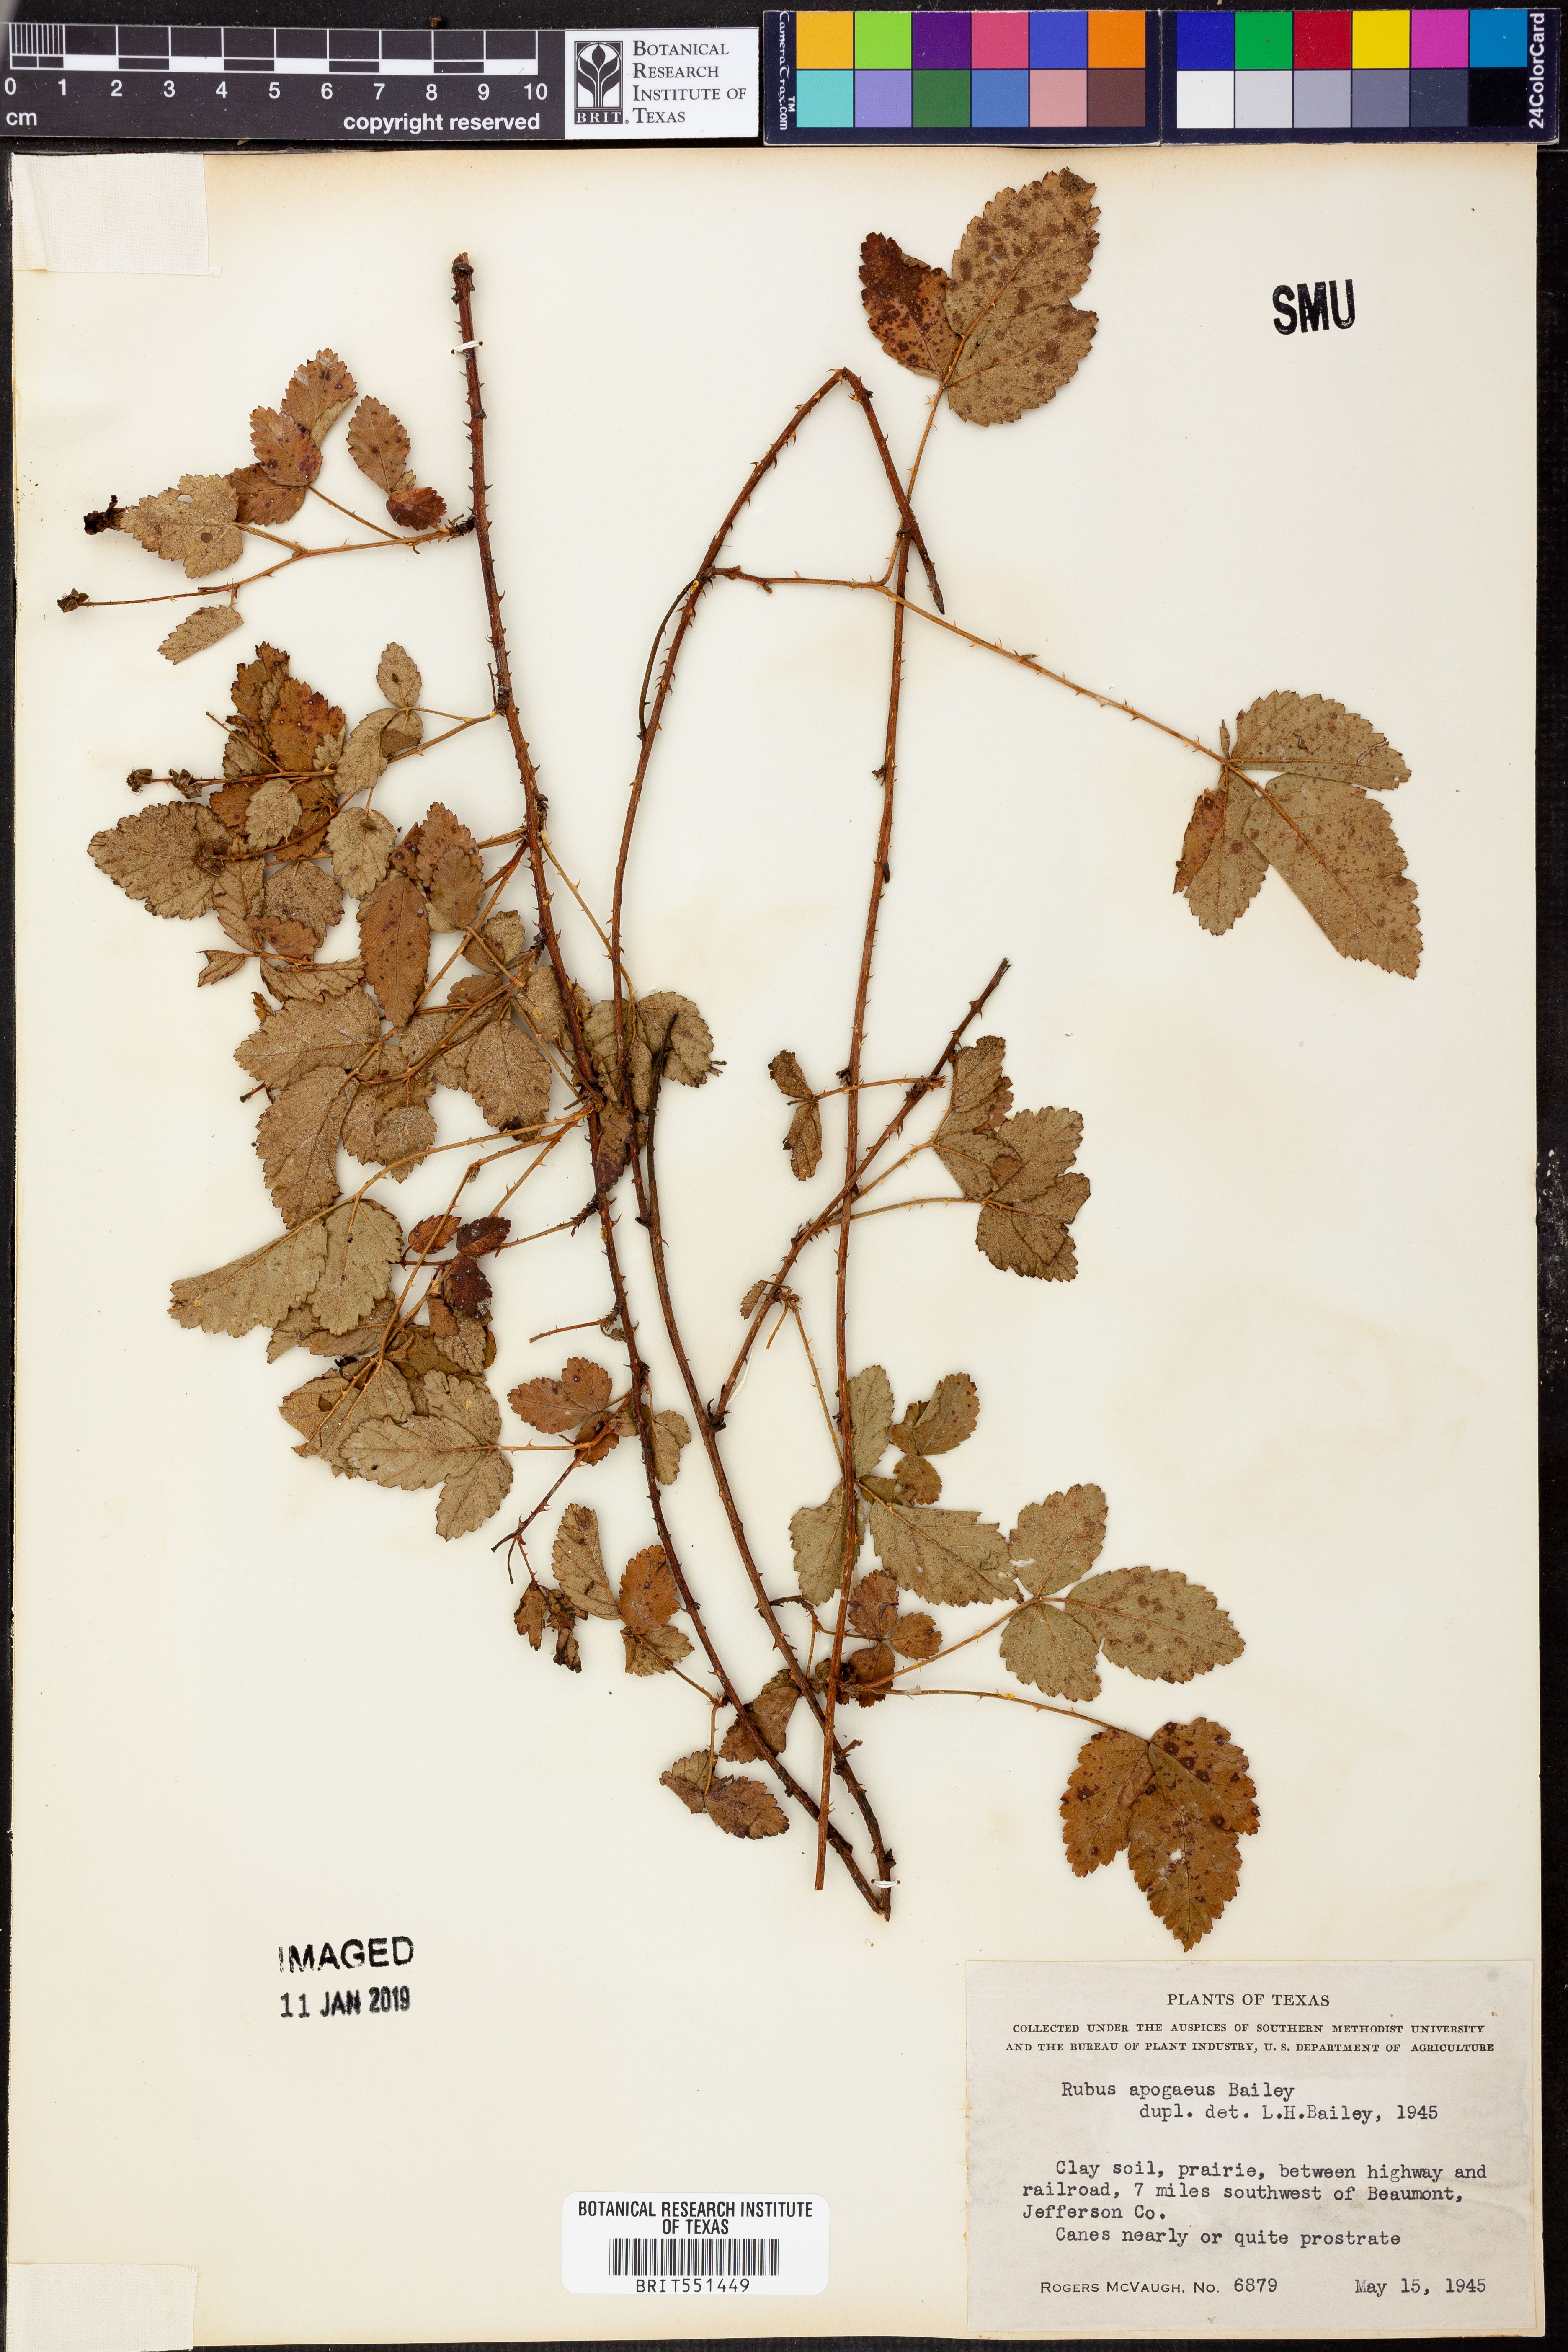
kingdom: Plantae
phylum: Tracheophyta
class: Magnoliopsida
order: Rosales
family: Rosaceae
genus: Rubus
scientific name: Rubus apogaeus
